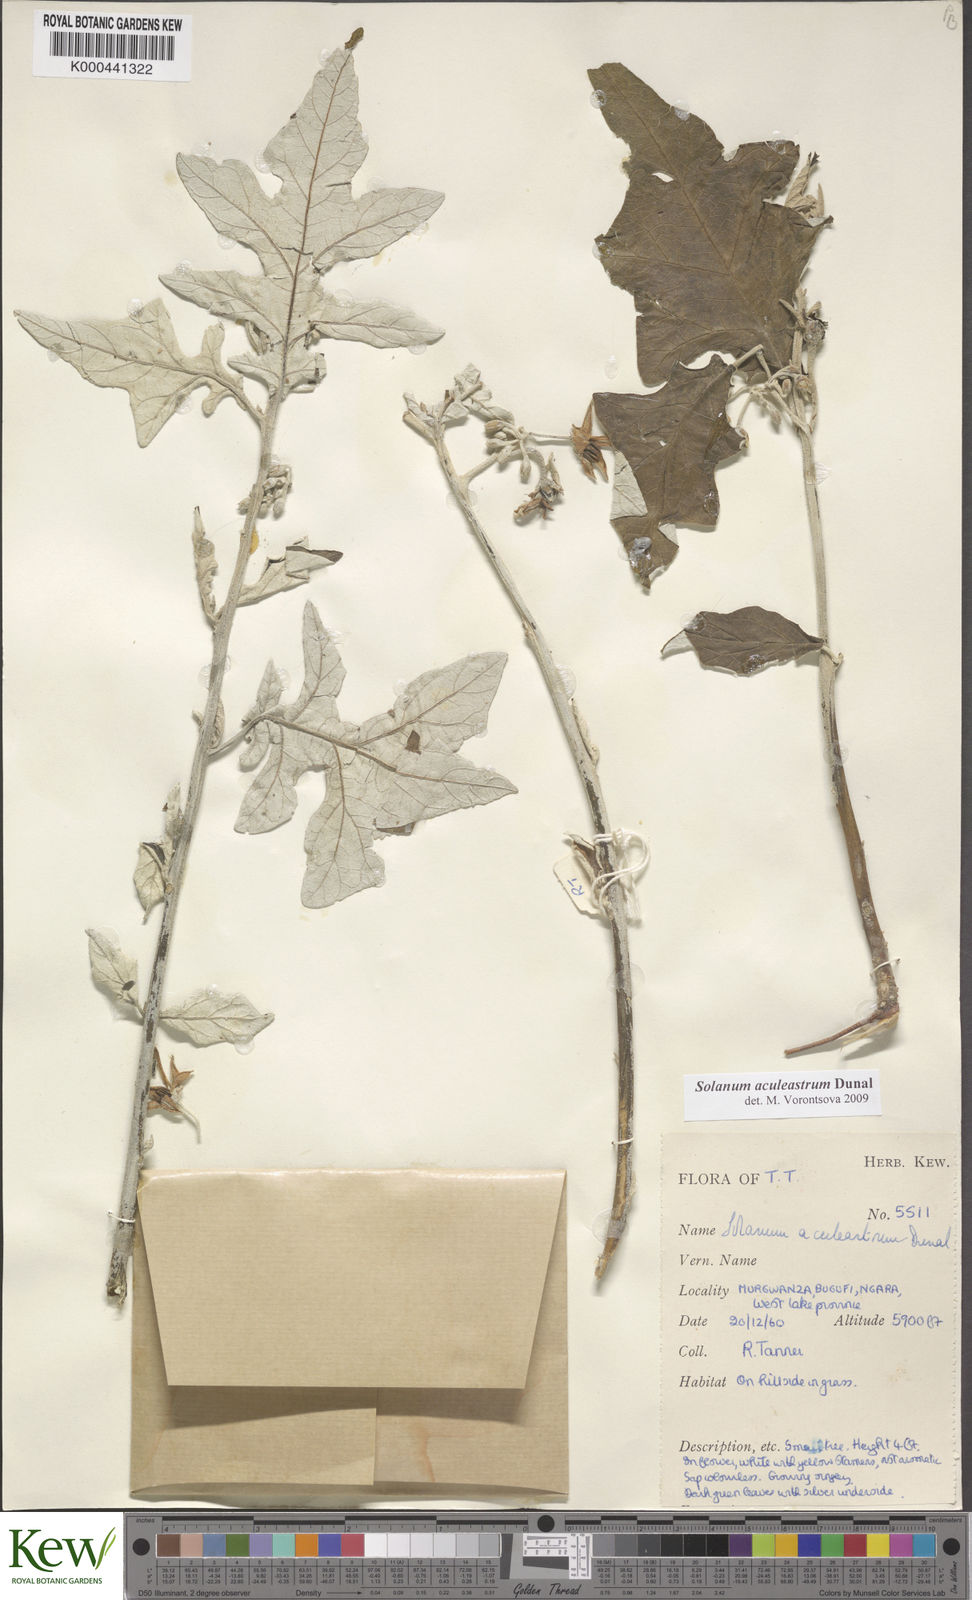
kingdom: Plantae
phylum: Tracheophyta
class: Magnoliopsida
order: Solanales
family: Solanaceae
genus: Solanum
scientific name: Solanum aculeastrum
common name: Goat bitter-apple
